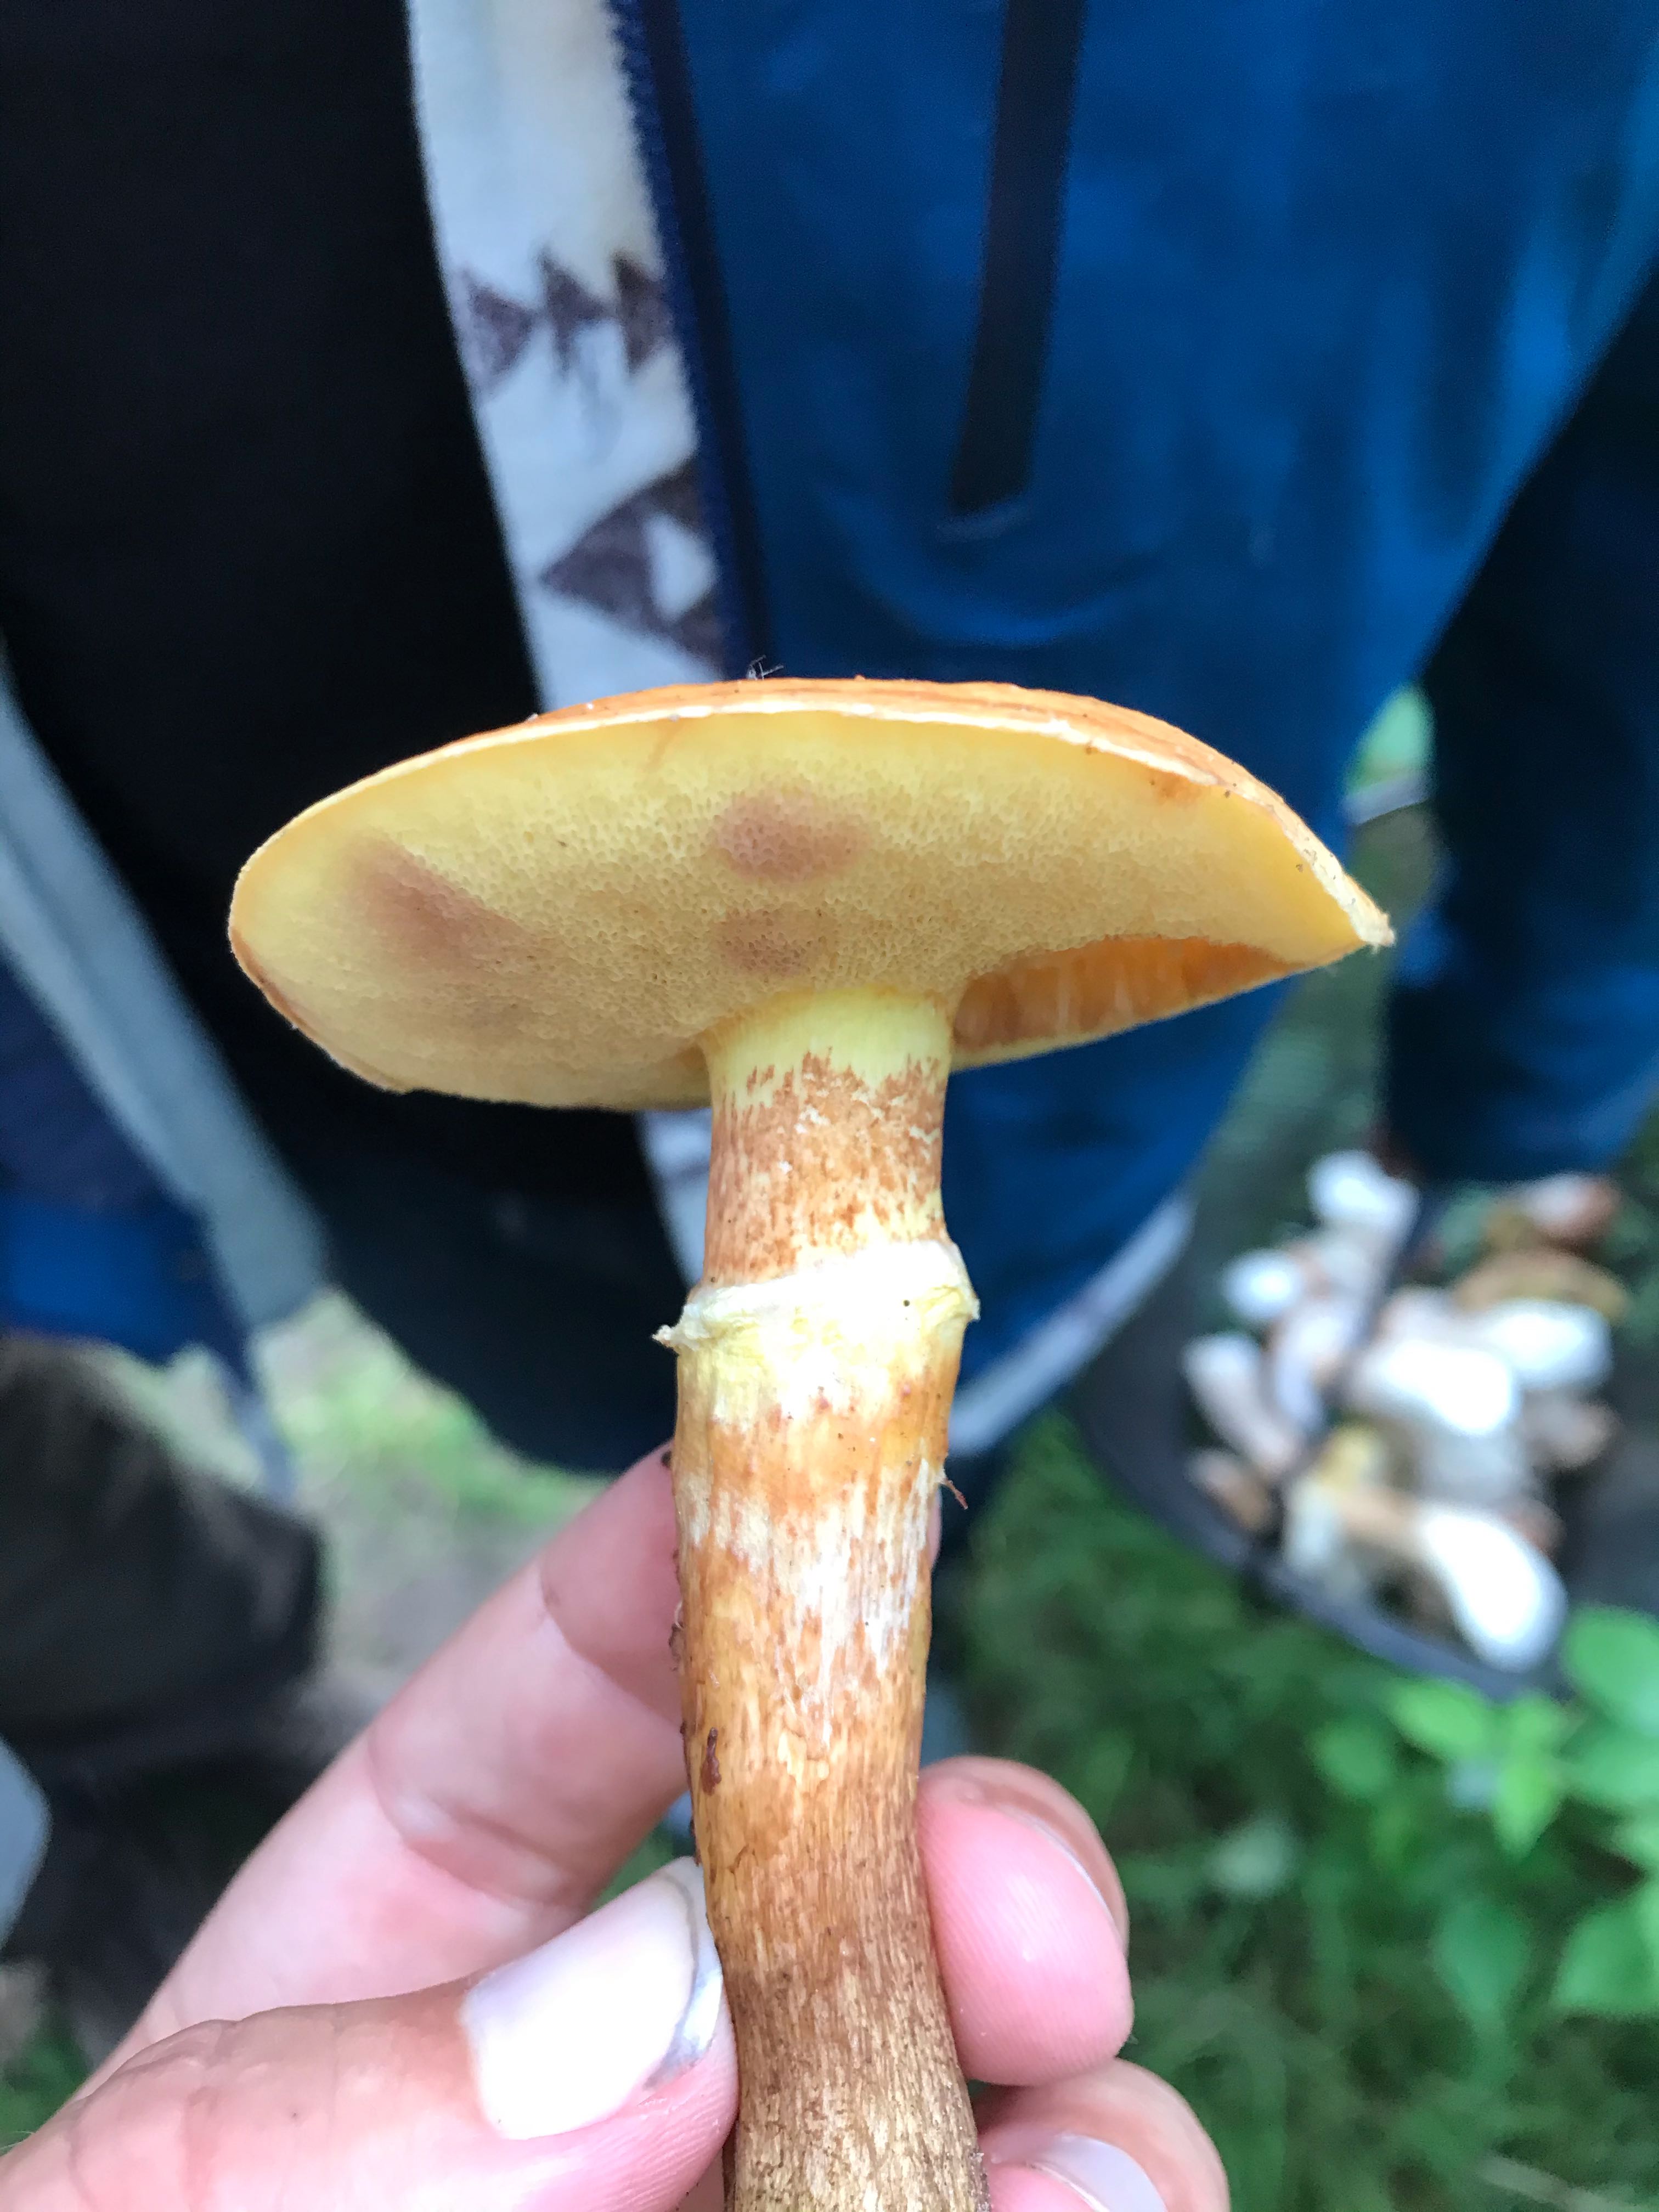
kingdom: Fungi
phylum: Basidiomycota
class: Agaricomycetes
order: Boletales
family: Suillaceae
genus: Suillus
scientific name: Suillus grevillei
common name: lærke-slimrørhat
